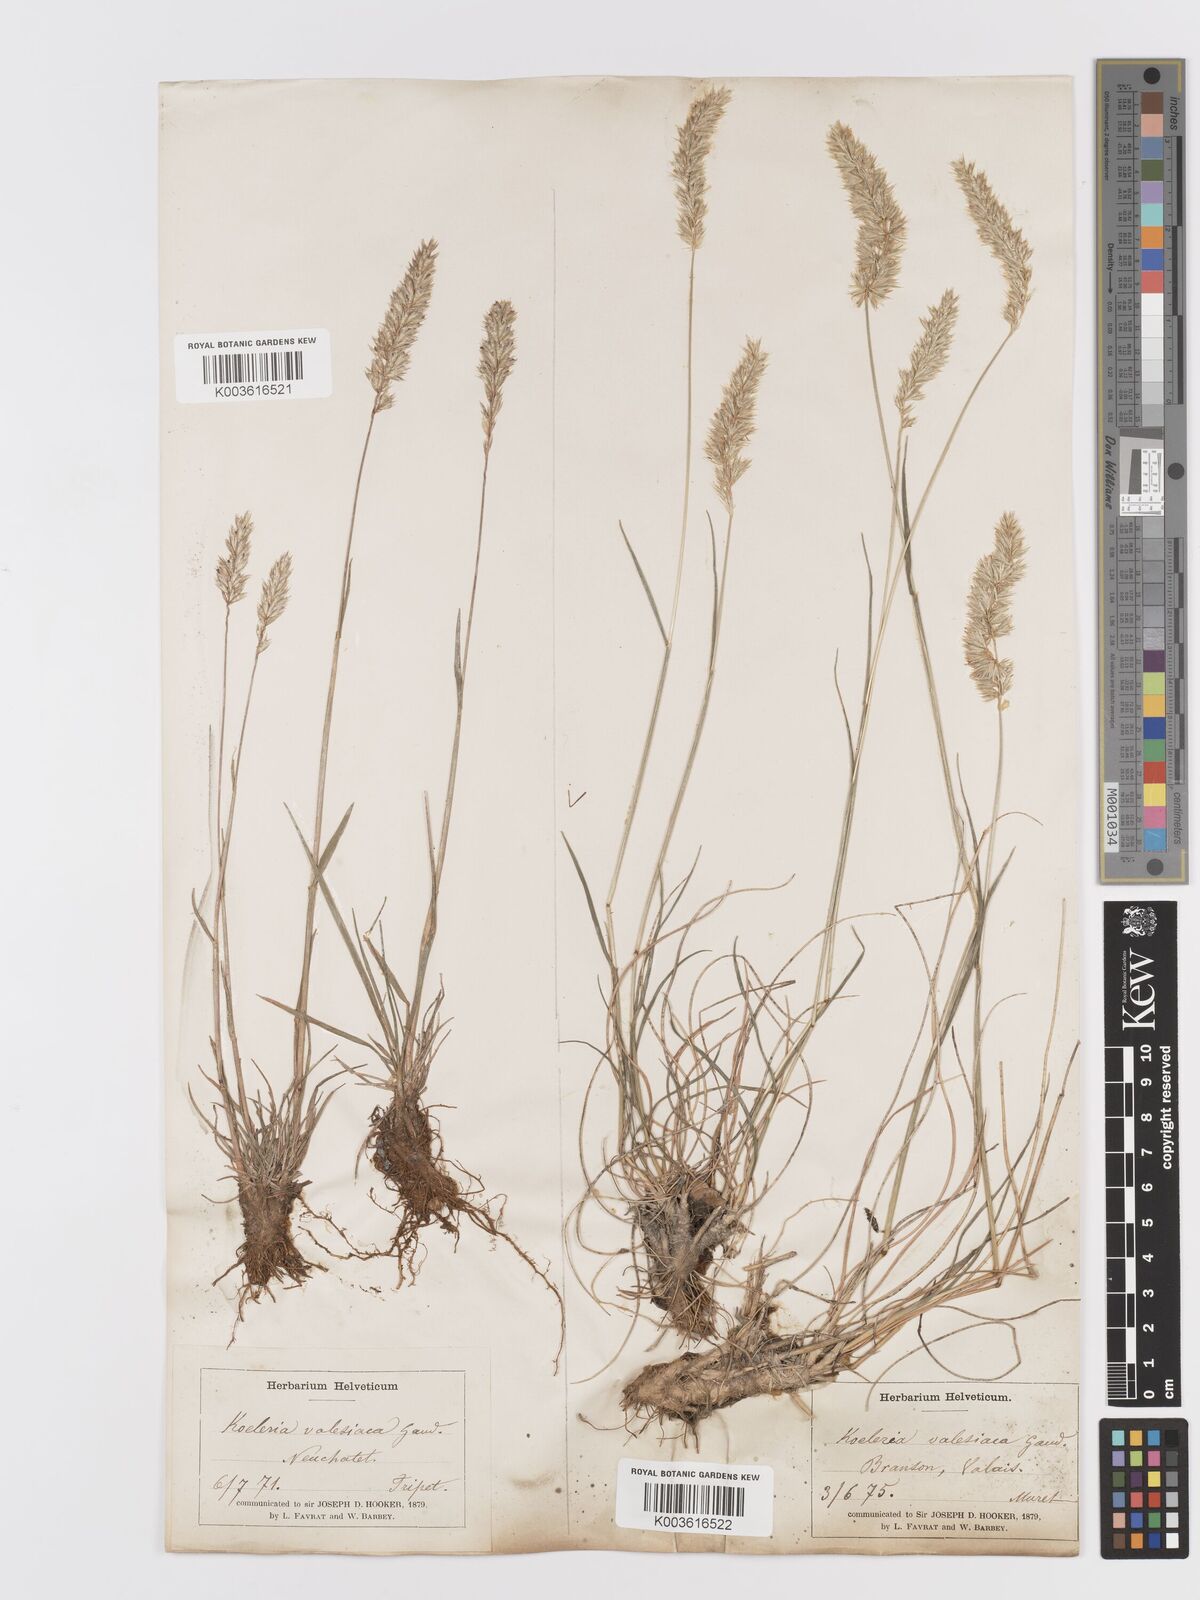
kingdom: Plantae
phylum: Tracheophyta
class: Liliopsida
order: Poales
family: Poaceae
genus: Koeleria
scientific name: Koeleria vallesiana
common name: Somerset hair-grass
